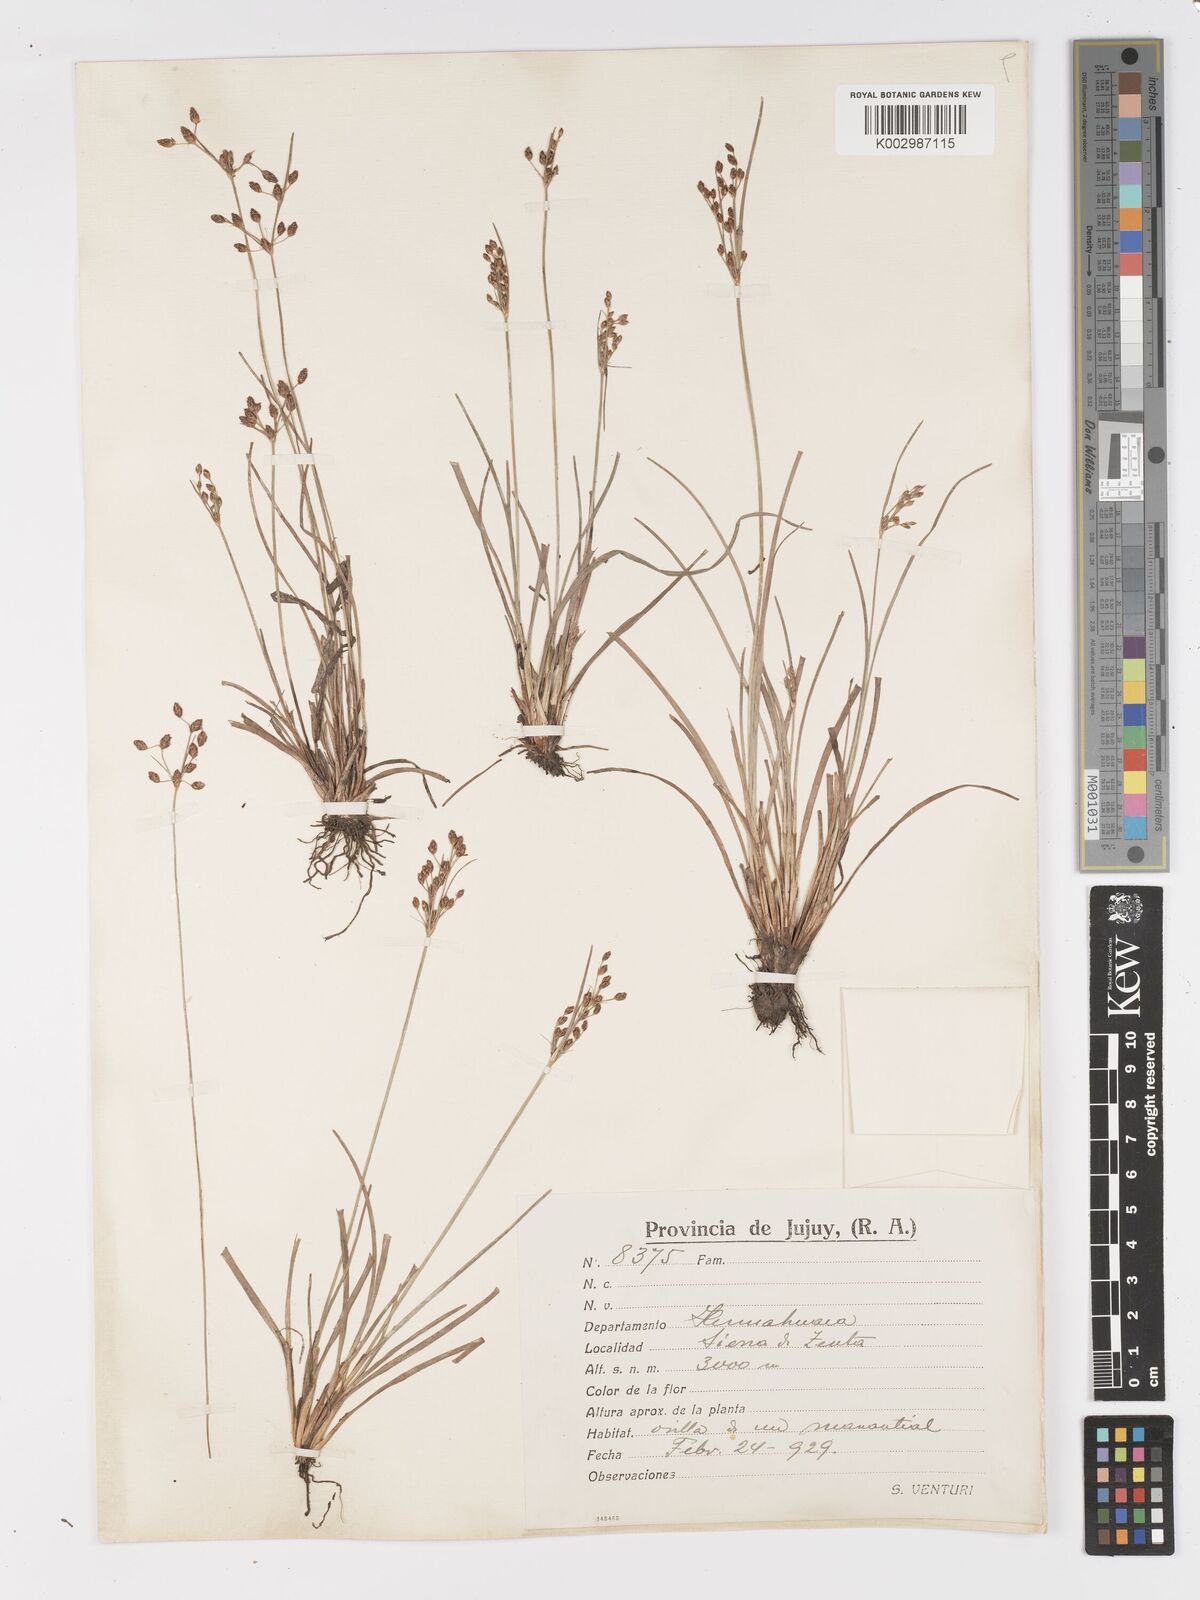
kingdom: Plantae
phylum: Tracheophyta
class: Liliopsida
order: Poales
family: Cyperaceae
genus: Fimbristylis
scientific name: Fimbristylis dichotoma
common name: Forked fimbry
